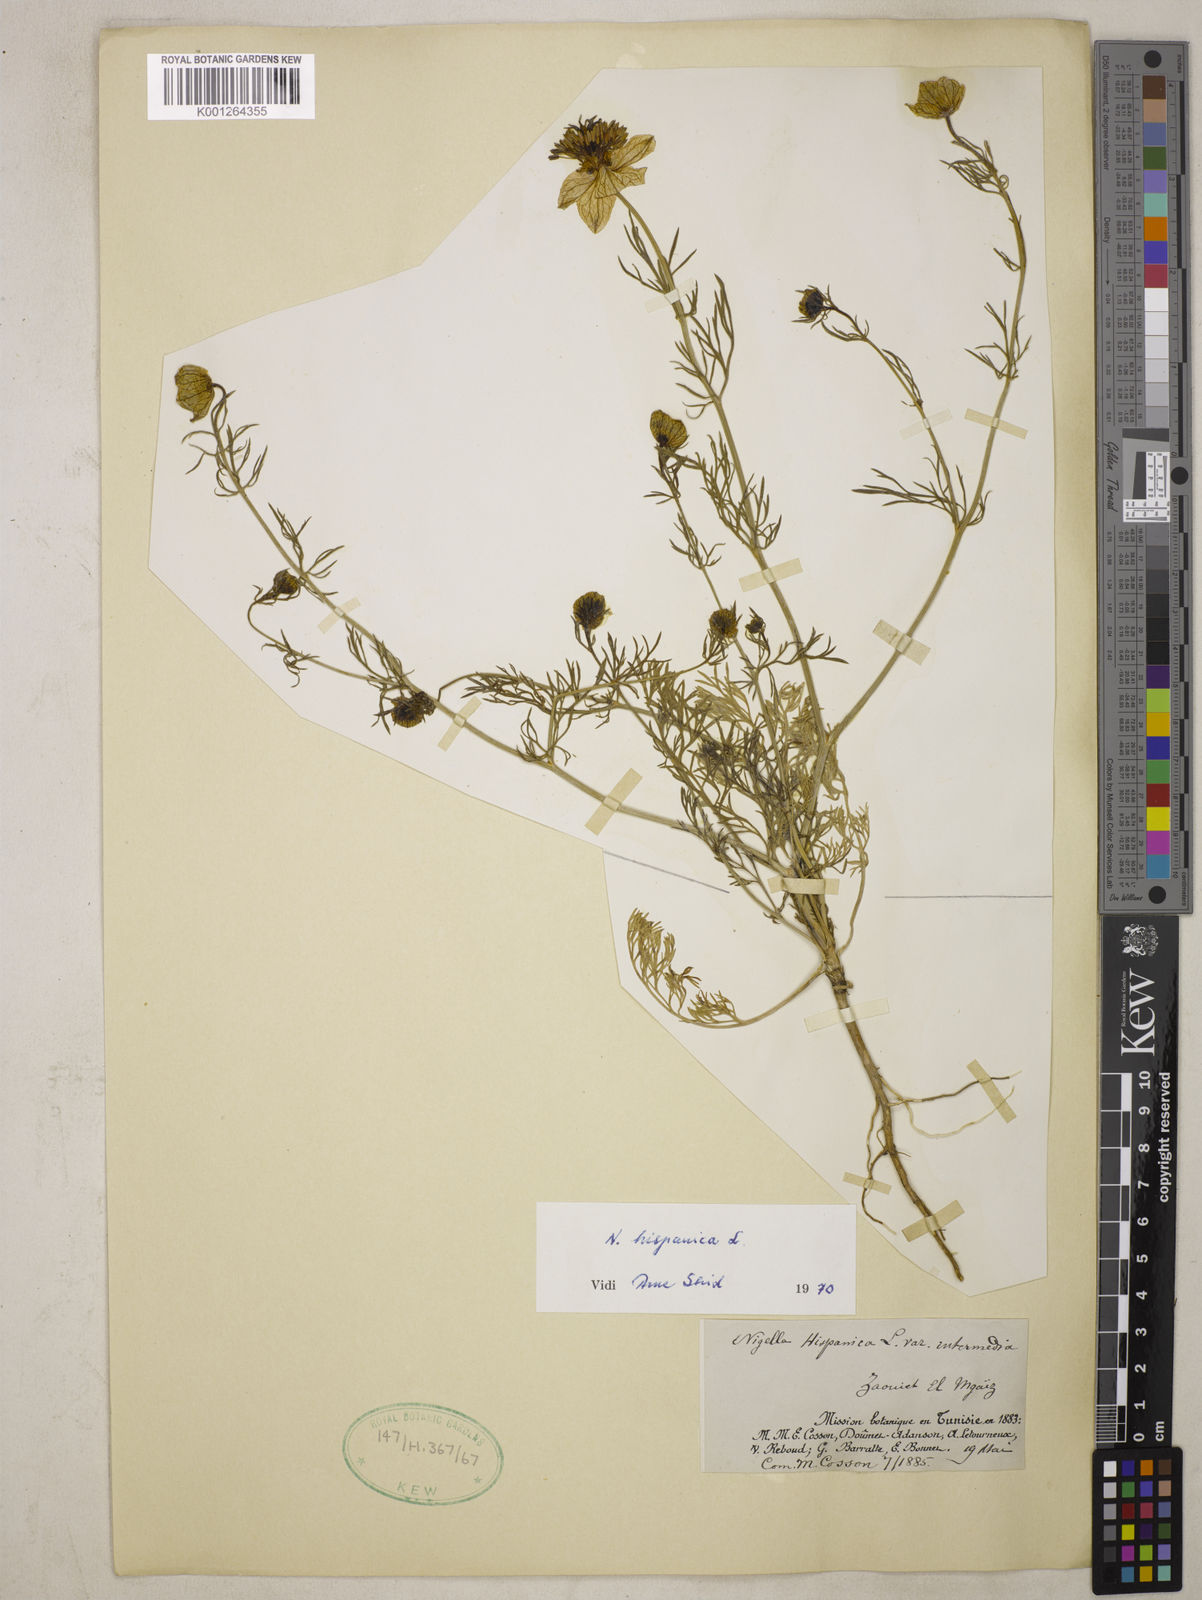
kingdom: Plantae
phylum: Tracheophyta
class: Magnoliopsida
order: Ranunculales
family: Ranunculaceae
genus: Nigella
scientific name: Nigella hispanica
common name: Fennel-flower
